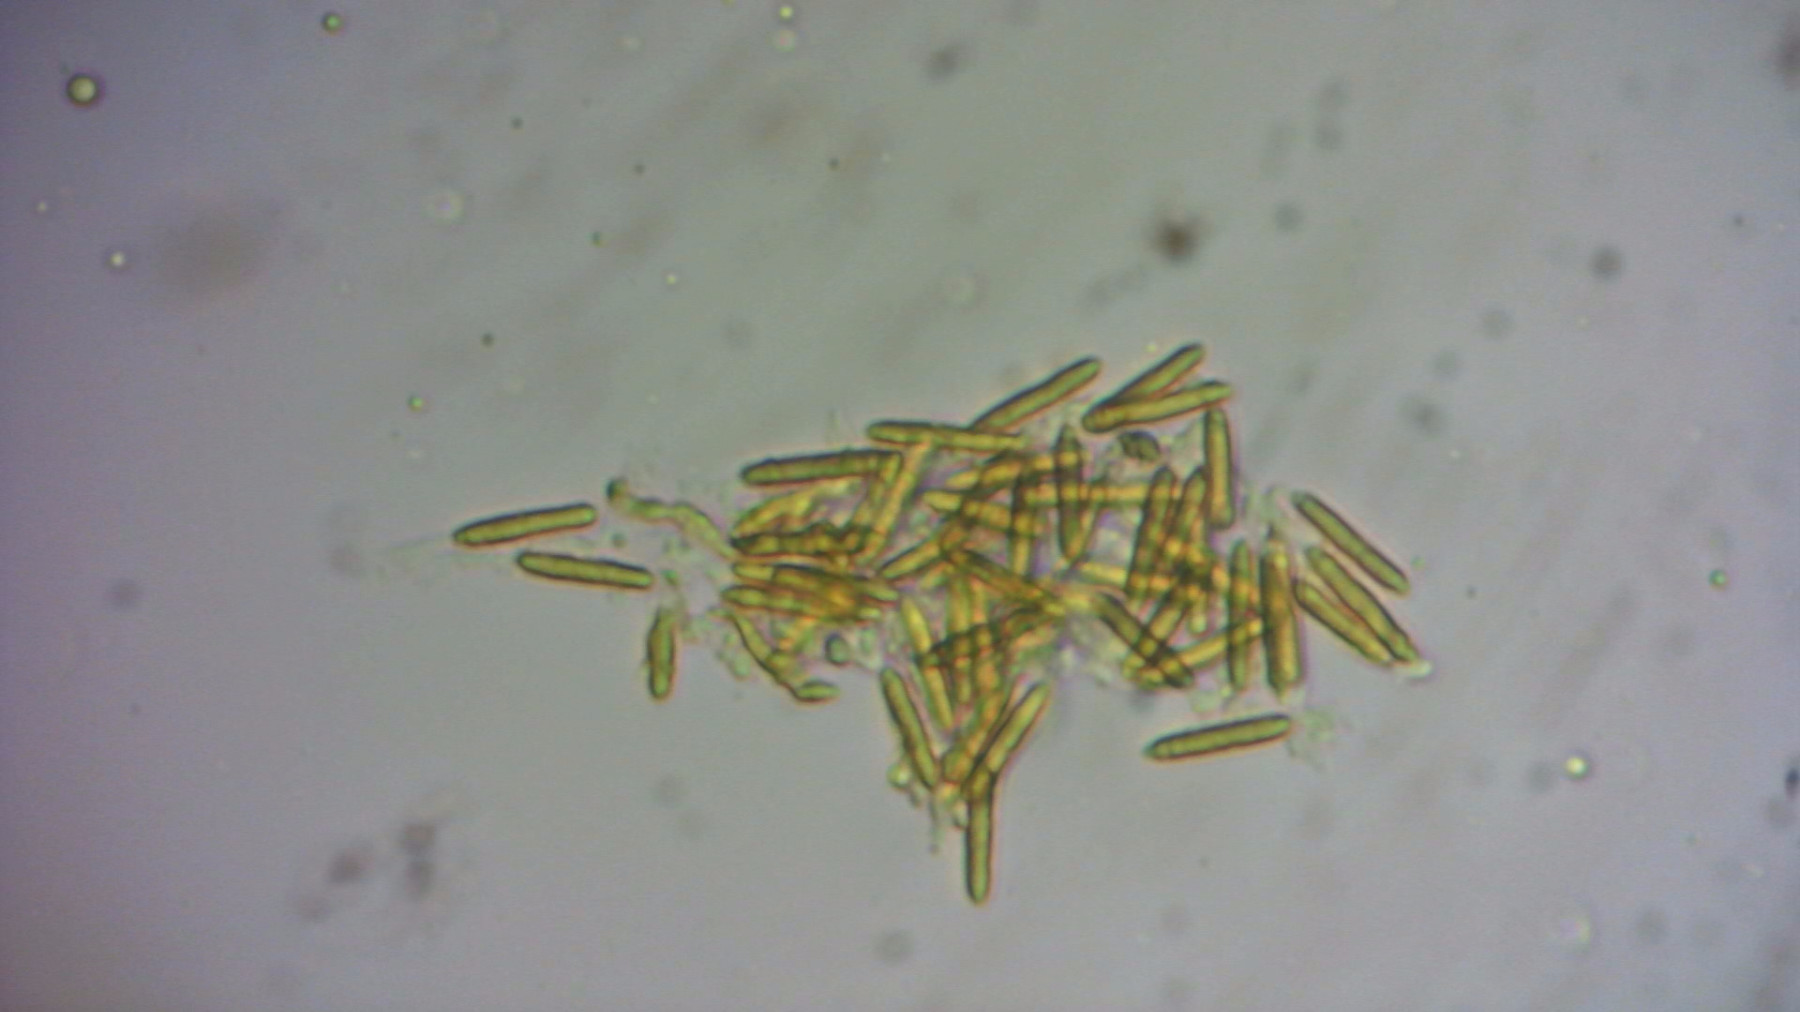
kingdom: Fungi
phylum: Ascomycota
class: Dothideomycetes
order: Mycosphaerellales
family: Mycosphaerellaceae
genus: Sphaerulina
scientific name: Sphaerulina frondicola
